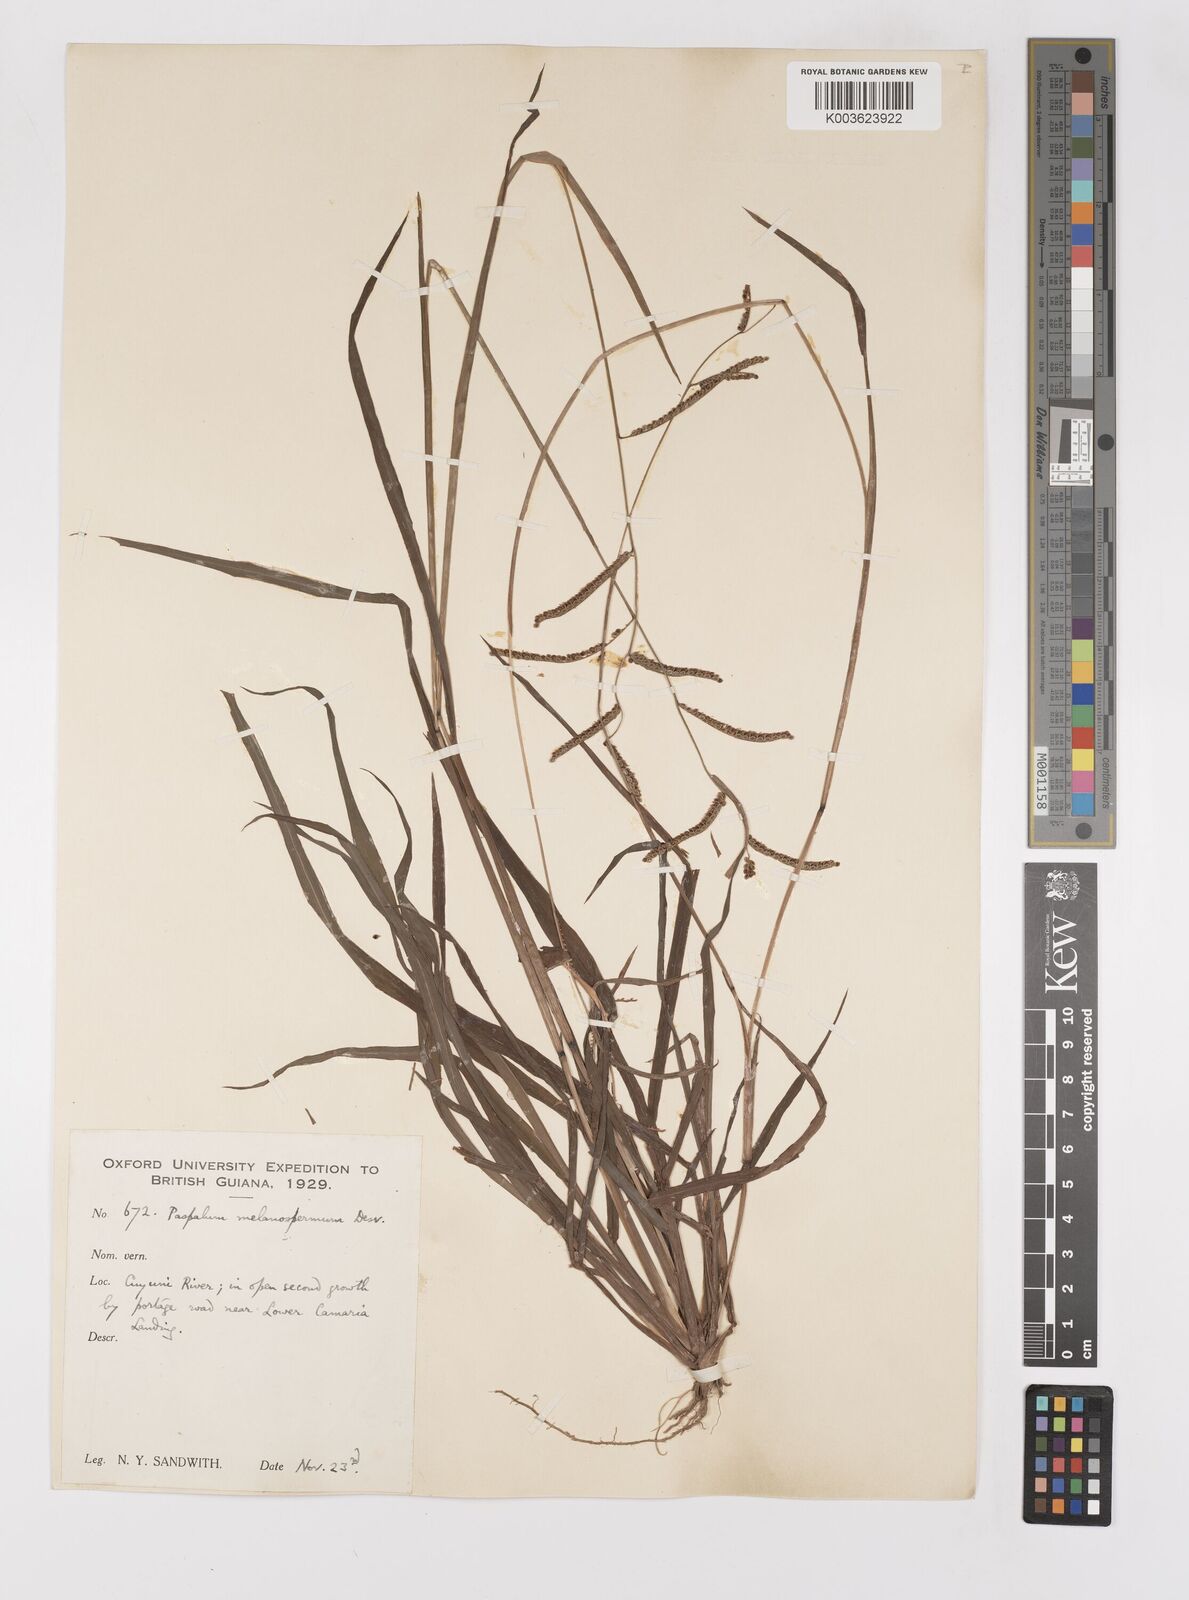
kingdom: Plantae
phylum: Tracheophyta
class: Liliopsida
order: Poales
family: Poaceae
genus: Paspalum
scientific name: Paspalum melanospermum
